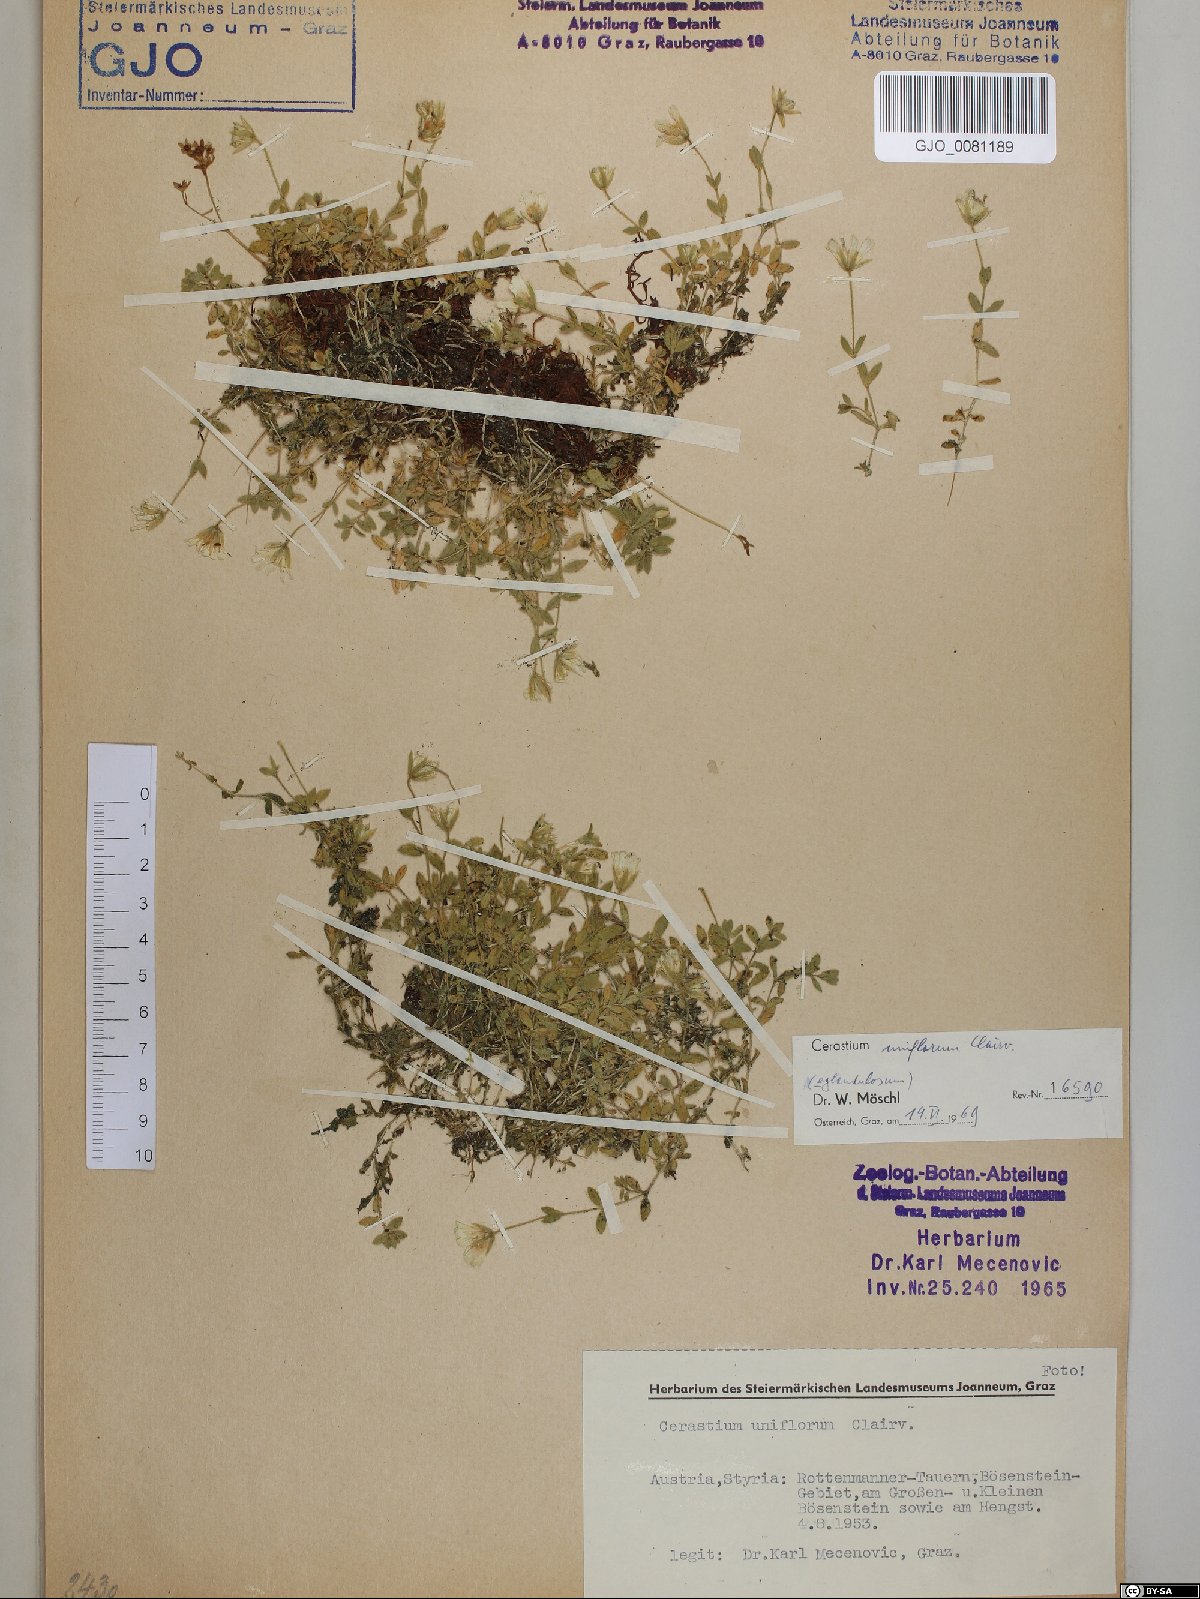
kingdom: Plantae
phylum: Tracheophyta
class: Magnoliopsida
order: Caryophyllales
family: Caryophyllaceae
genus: Cerastium
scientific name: Cerastium uniflorum
